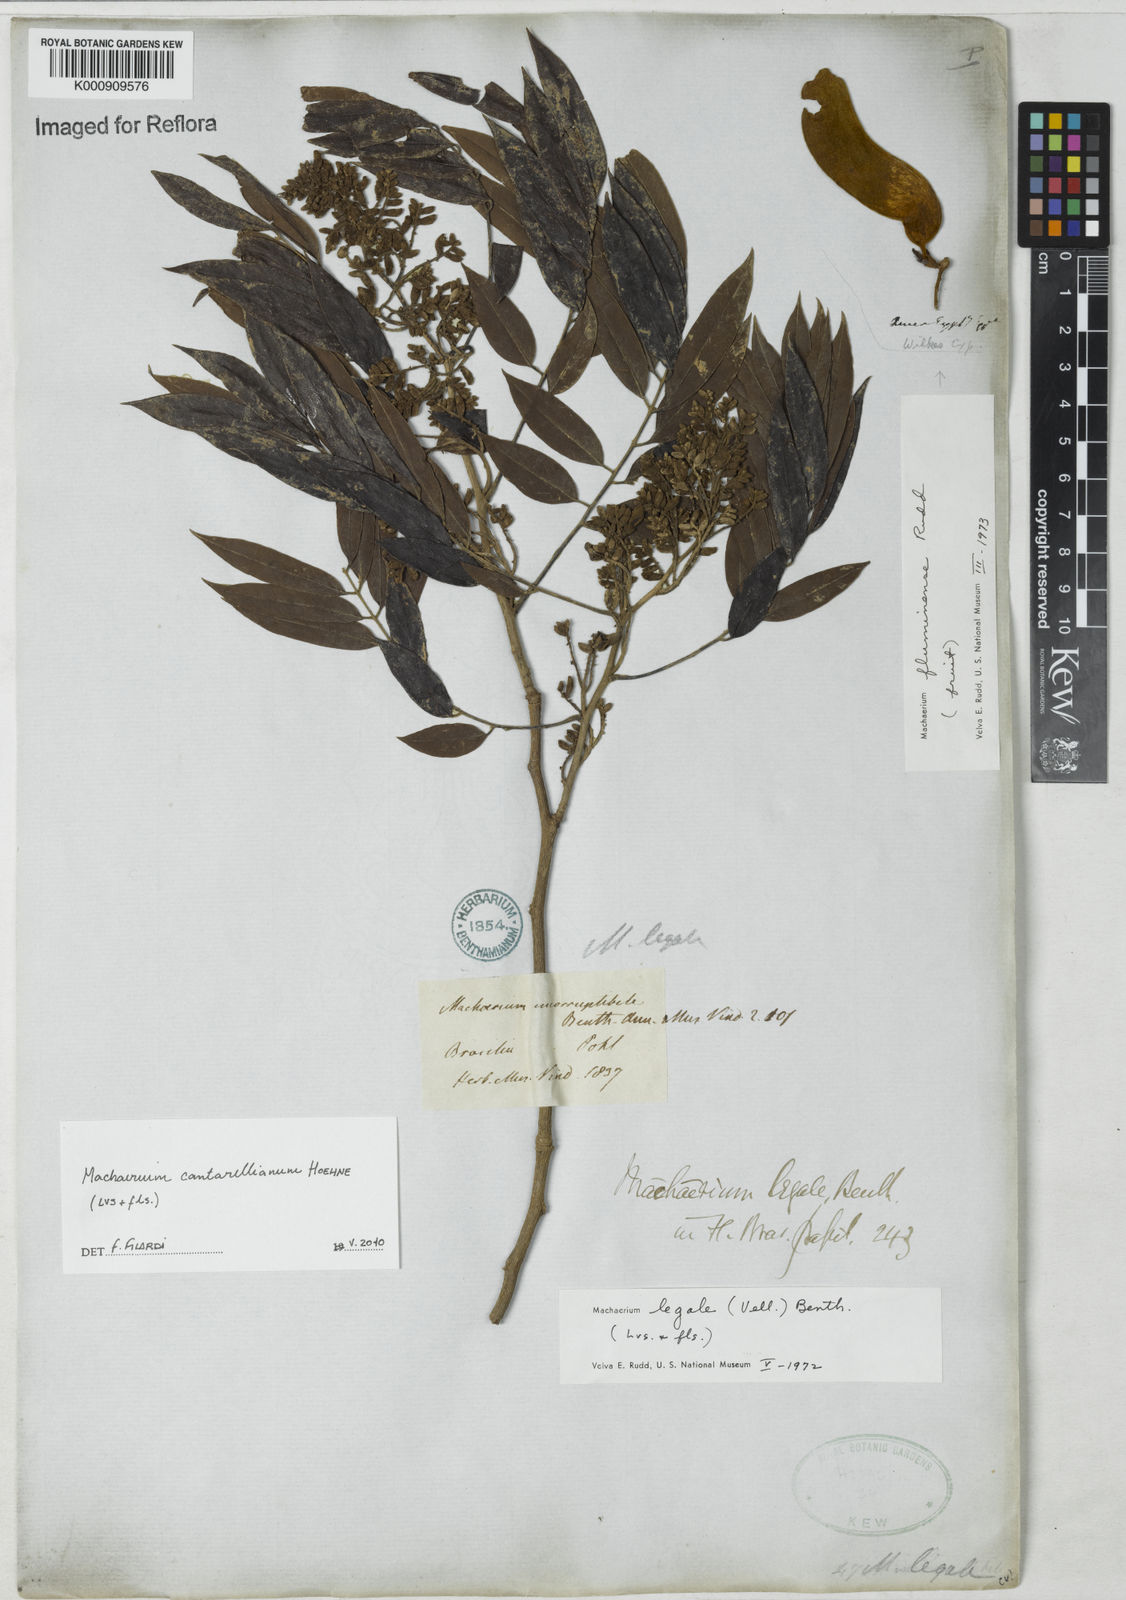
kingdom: Plantae
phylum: Tracheophyta
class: Magnoliopsida
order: Fabales
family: Fabaceae
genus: Machaerium
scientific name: Machaerium cantarellianum
